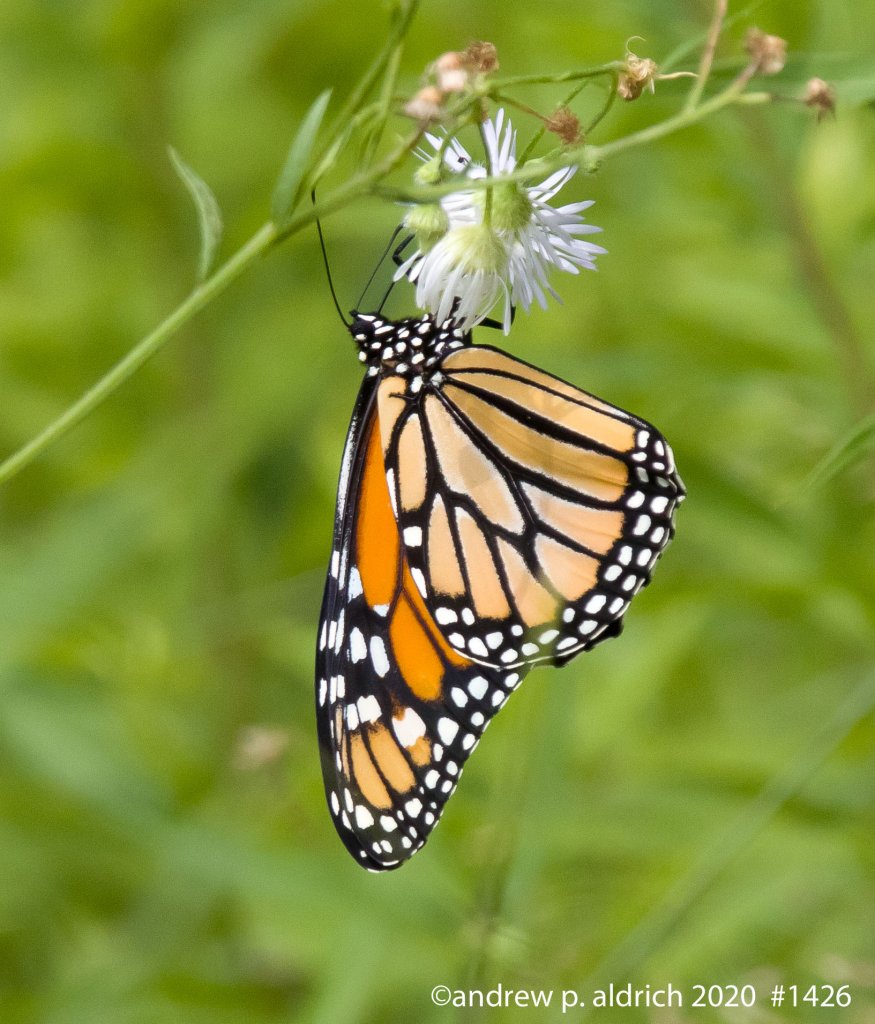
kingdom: Animalia
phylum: Arthropoda
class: Insecta
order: Lepidoptera
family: Nymphalidae
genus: Danaus
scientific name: Danaus plexippus
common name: Monarch
